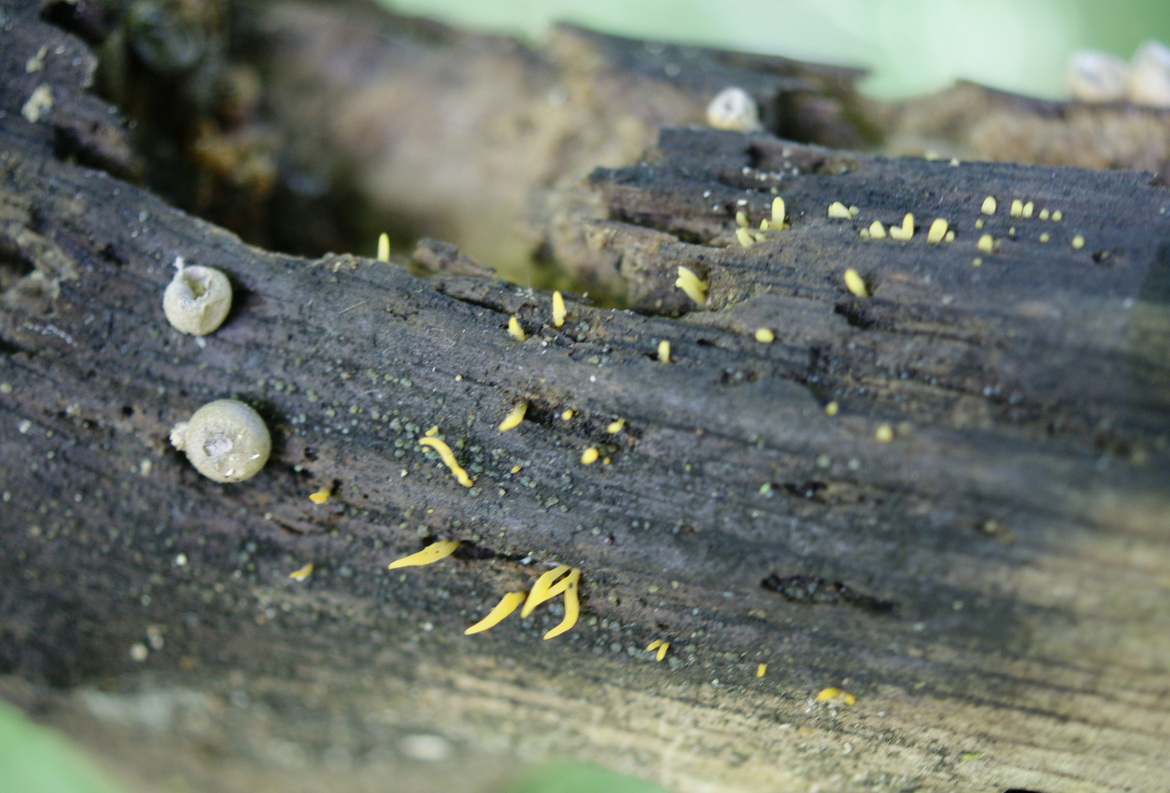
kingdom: Fungi
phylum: Basidiomycota
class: Dacrymycetes
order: Dacrymycetales
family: Dacrymycetaceae
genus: Calocera
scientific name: Calocera cornea
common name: liden guldgaffel
